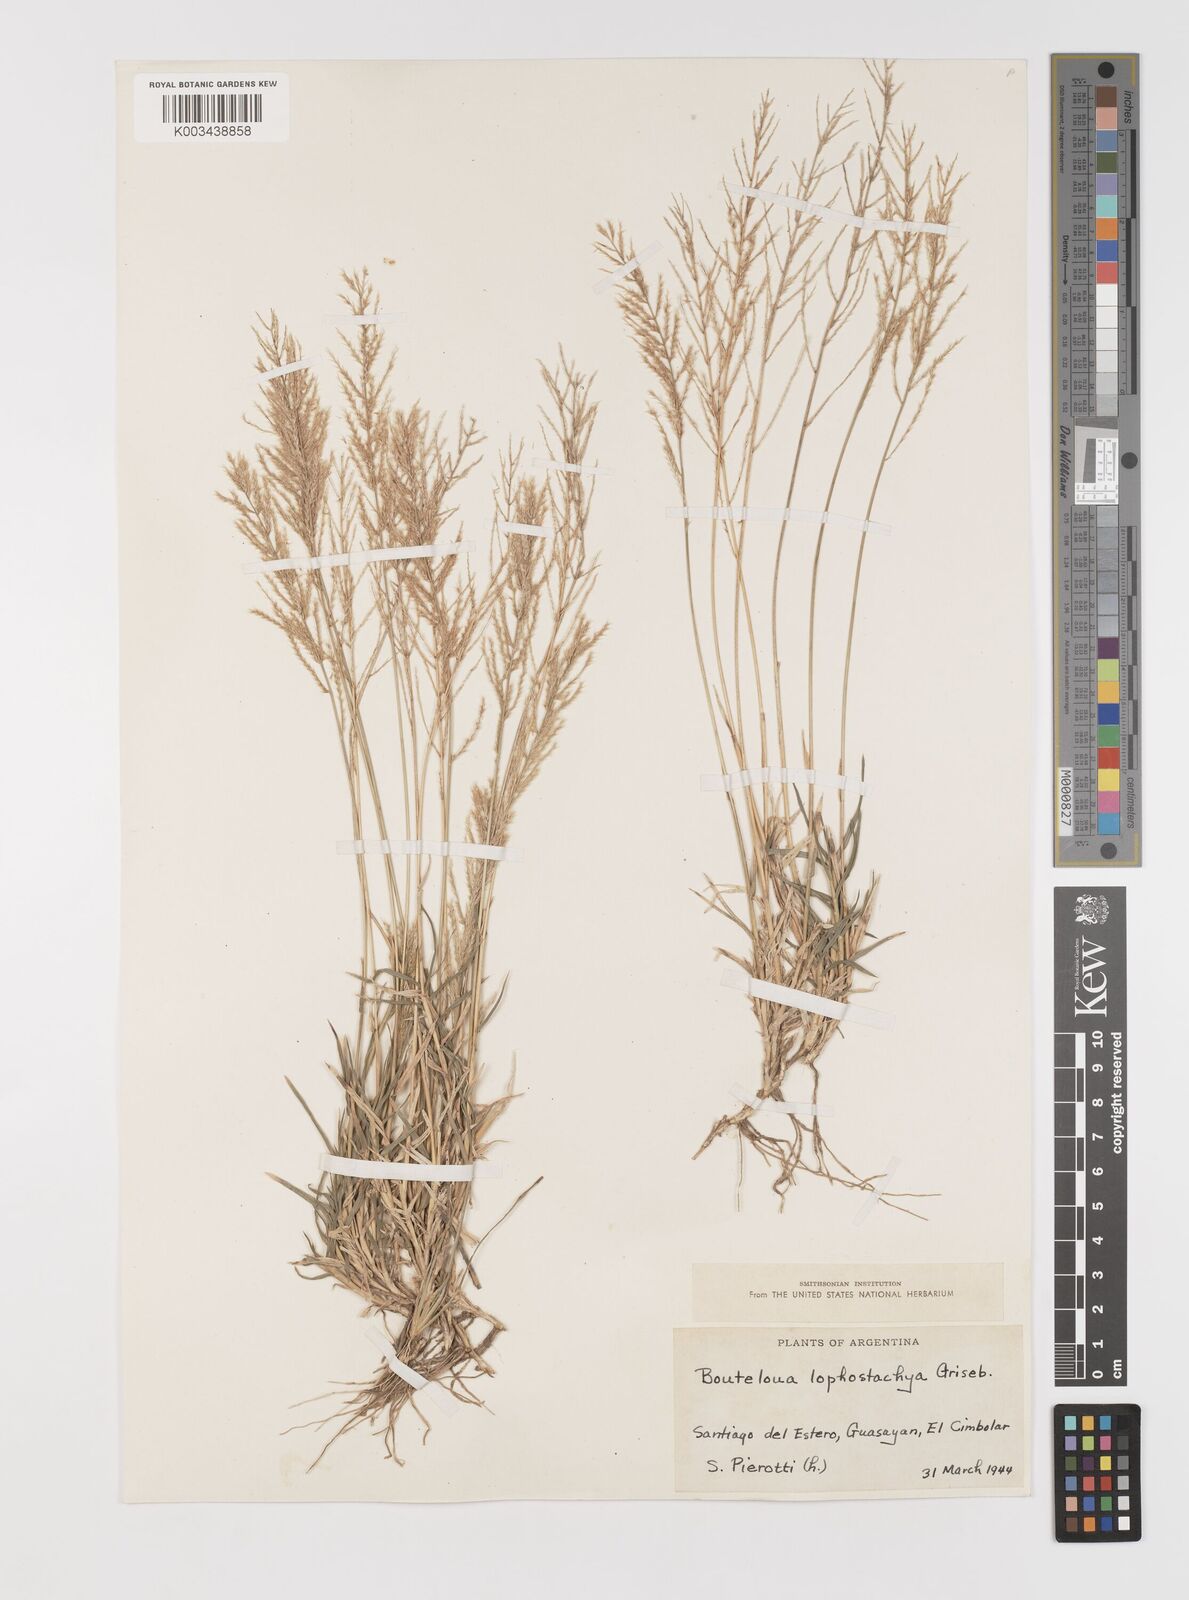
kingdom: Plantae
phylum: Tracheophyta
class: Liliopsida
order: Poales
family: Poaceae
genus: Neobouteloua
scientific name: Neobouteloua lophostachya
